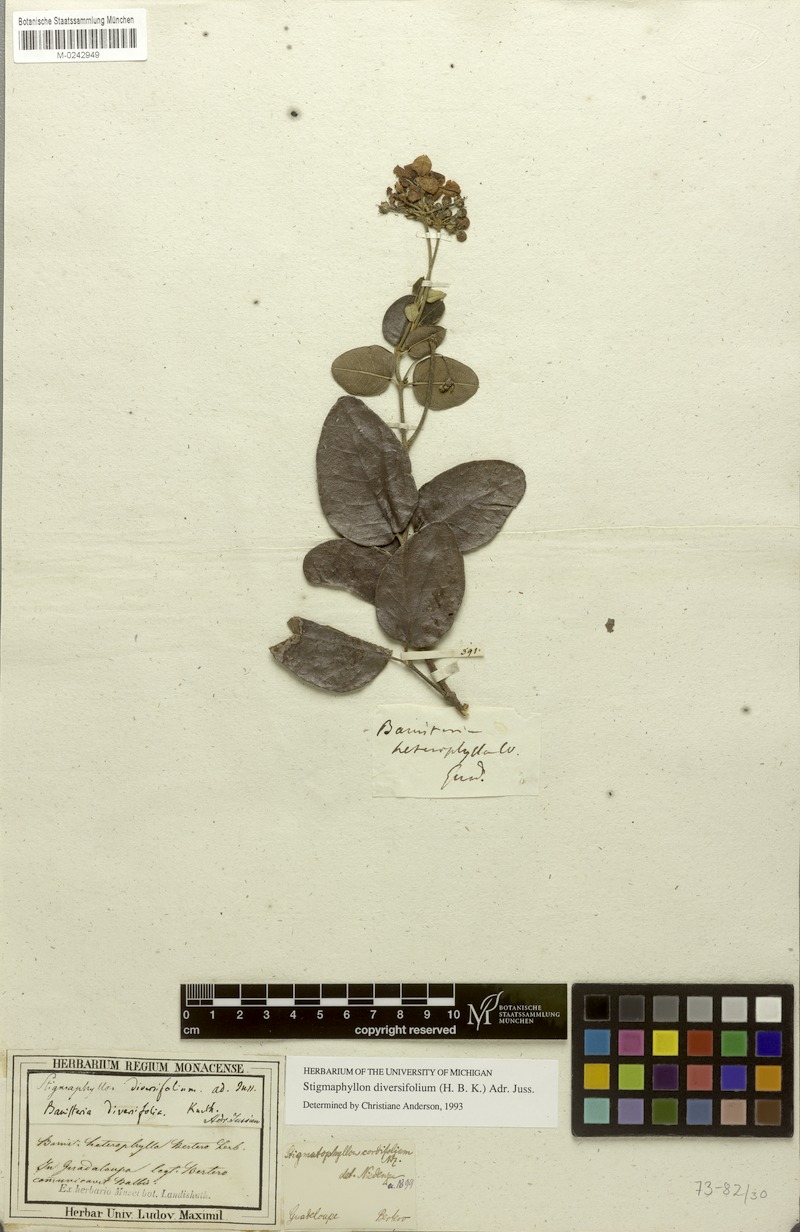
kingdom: Plantae
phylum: Tracheophyta
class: Magnoliopsida
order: Malpighiales
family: Malpighiaceae
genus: Stigmaphyllon
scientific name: Stigmaphyllon diversifolium
